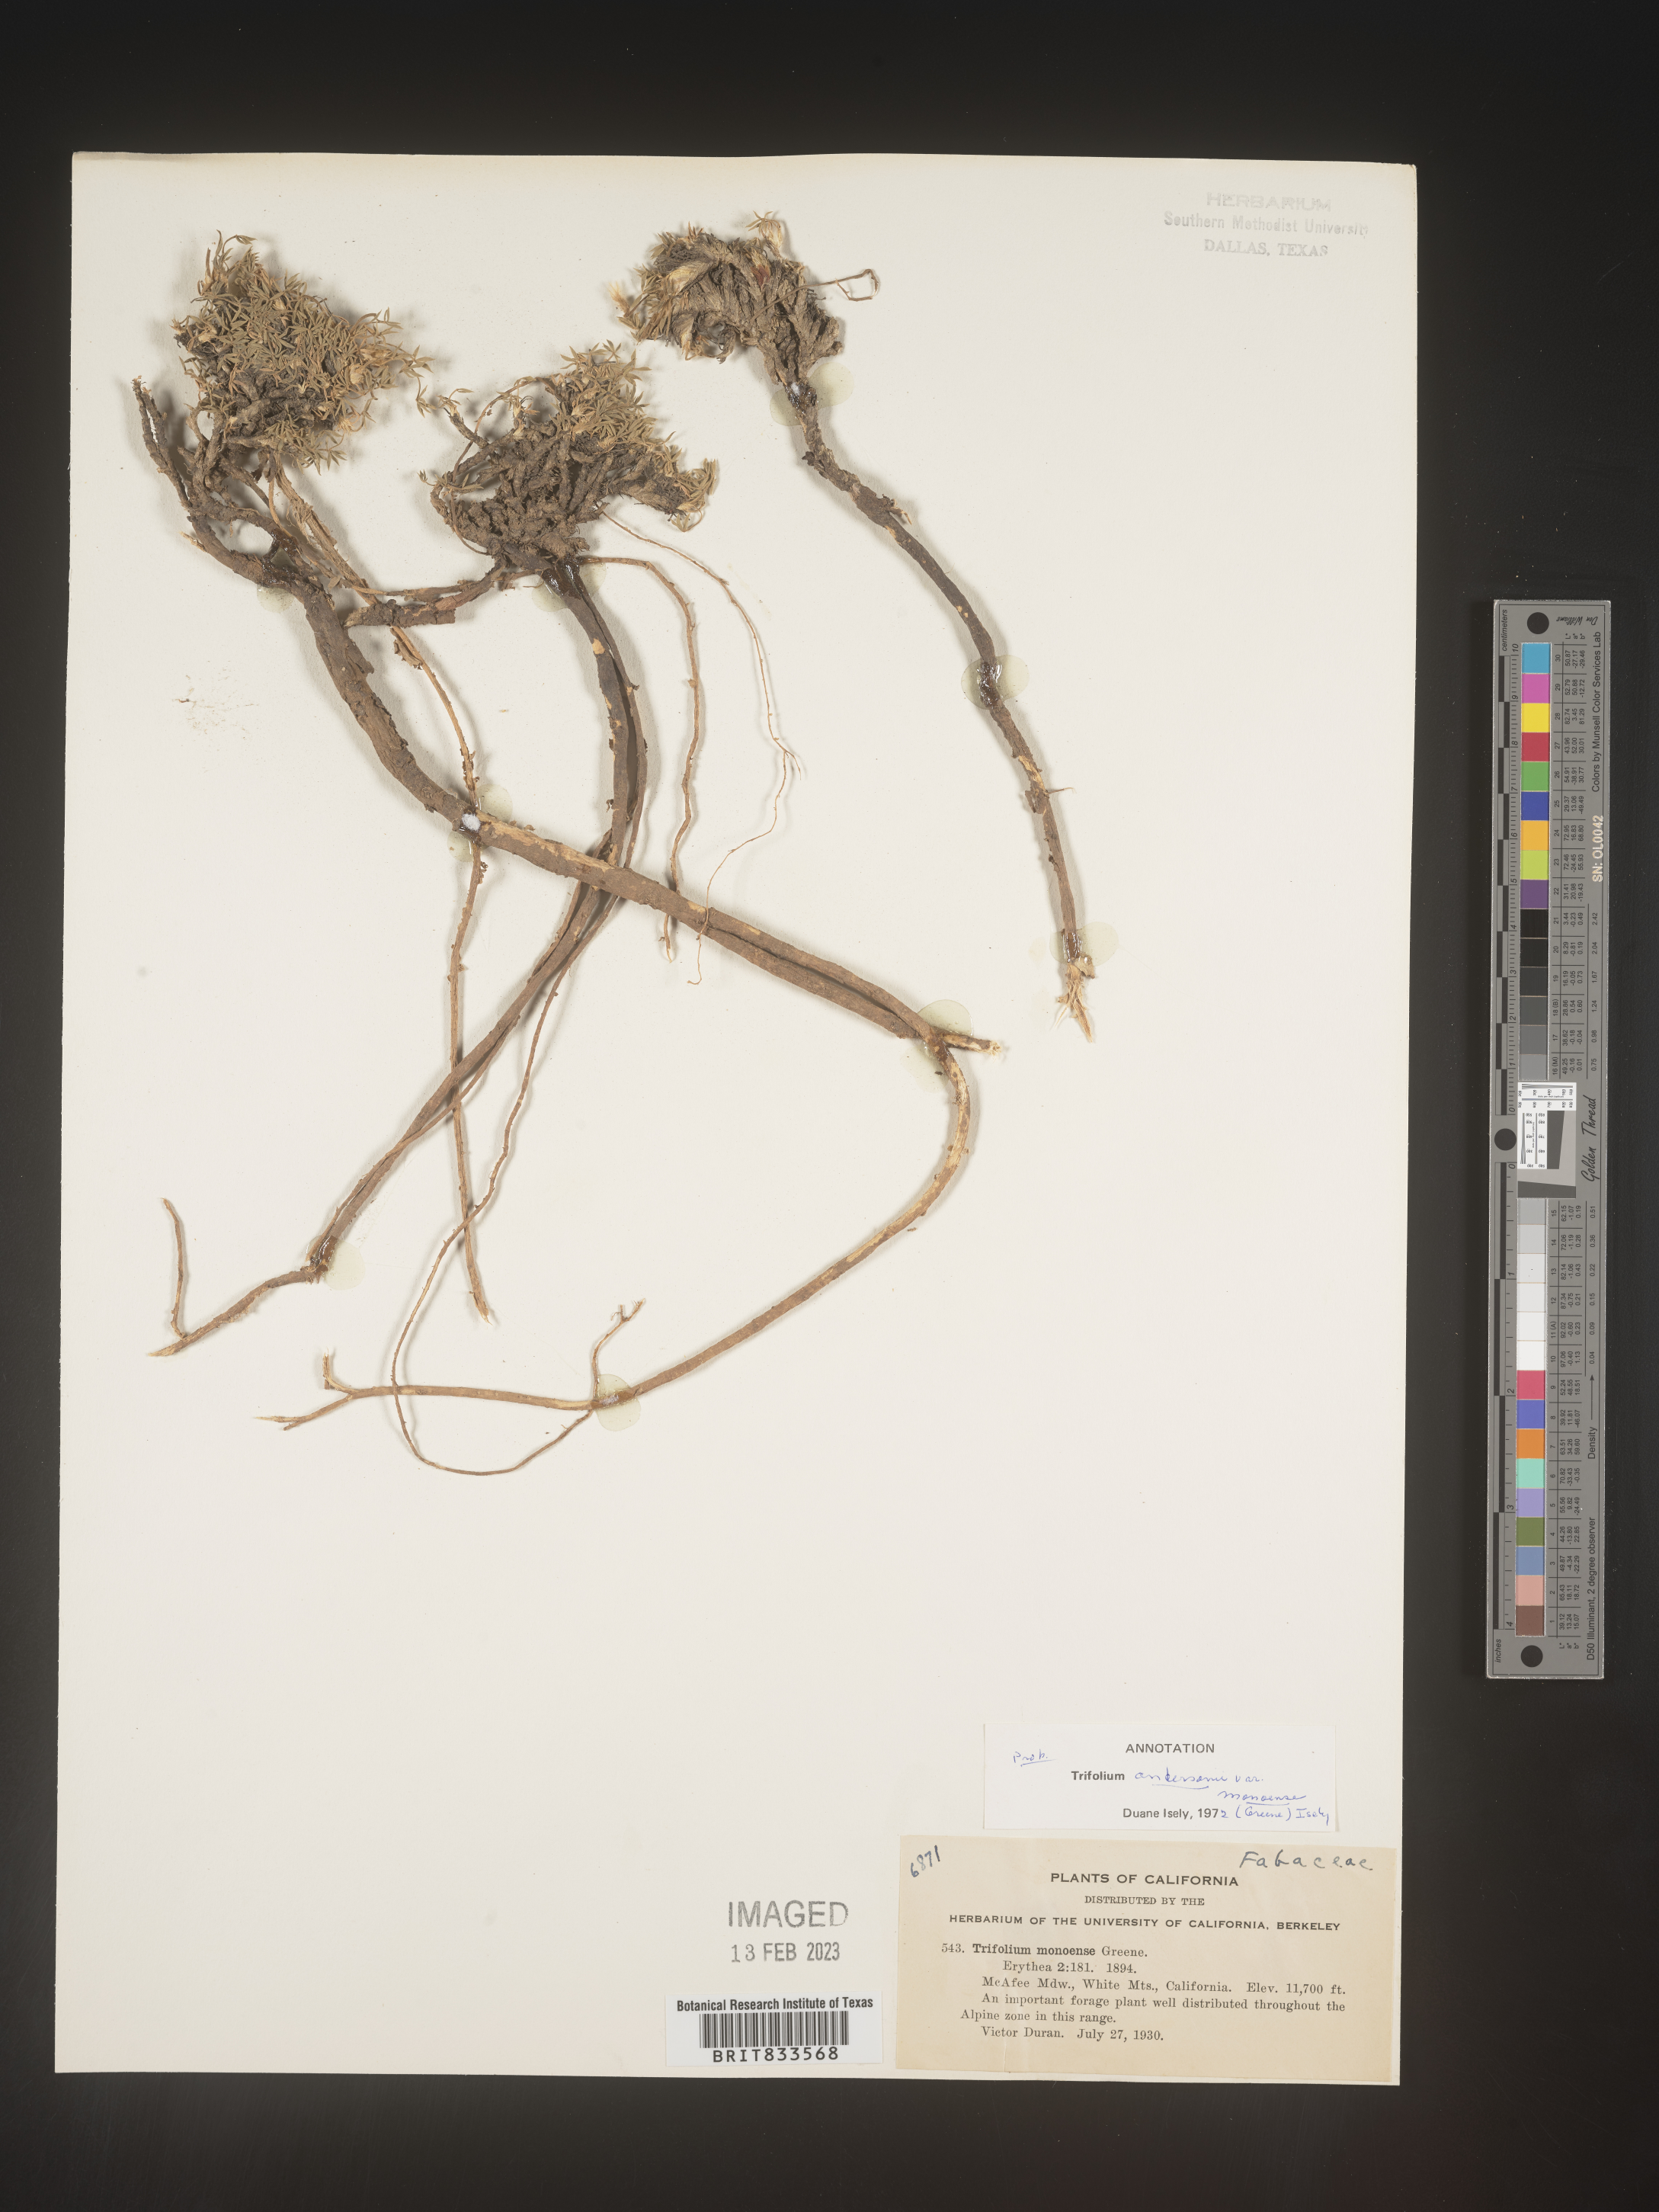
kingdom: Plantae
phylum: Tracheophyta
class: Magnoliopsida
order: Fabales
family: Fabaceae
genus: Trifolium
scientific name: Trifolium
